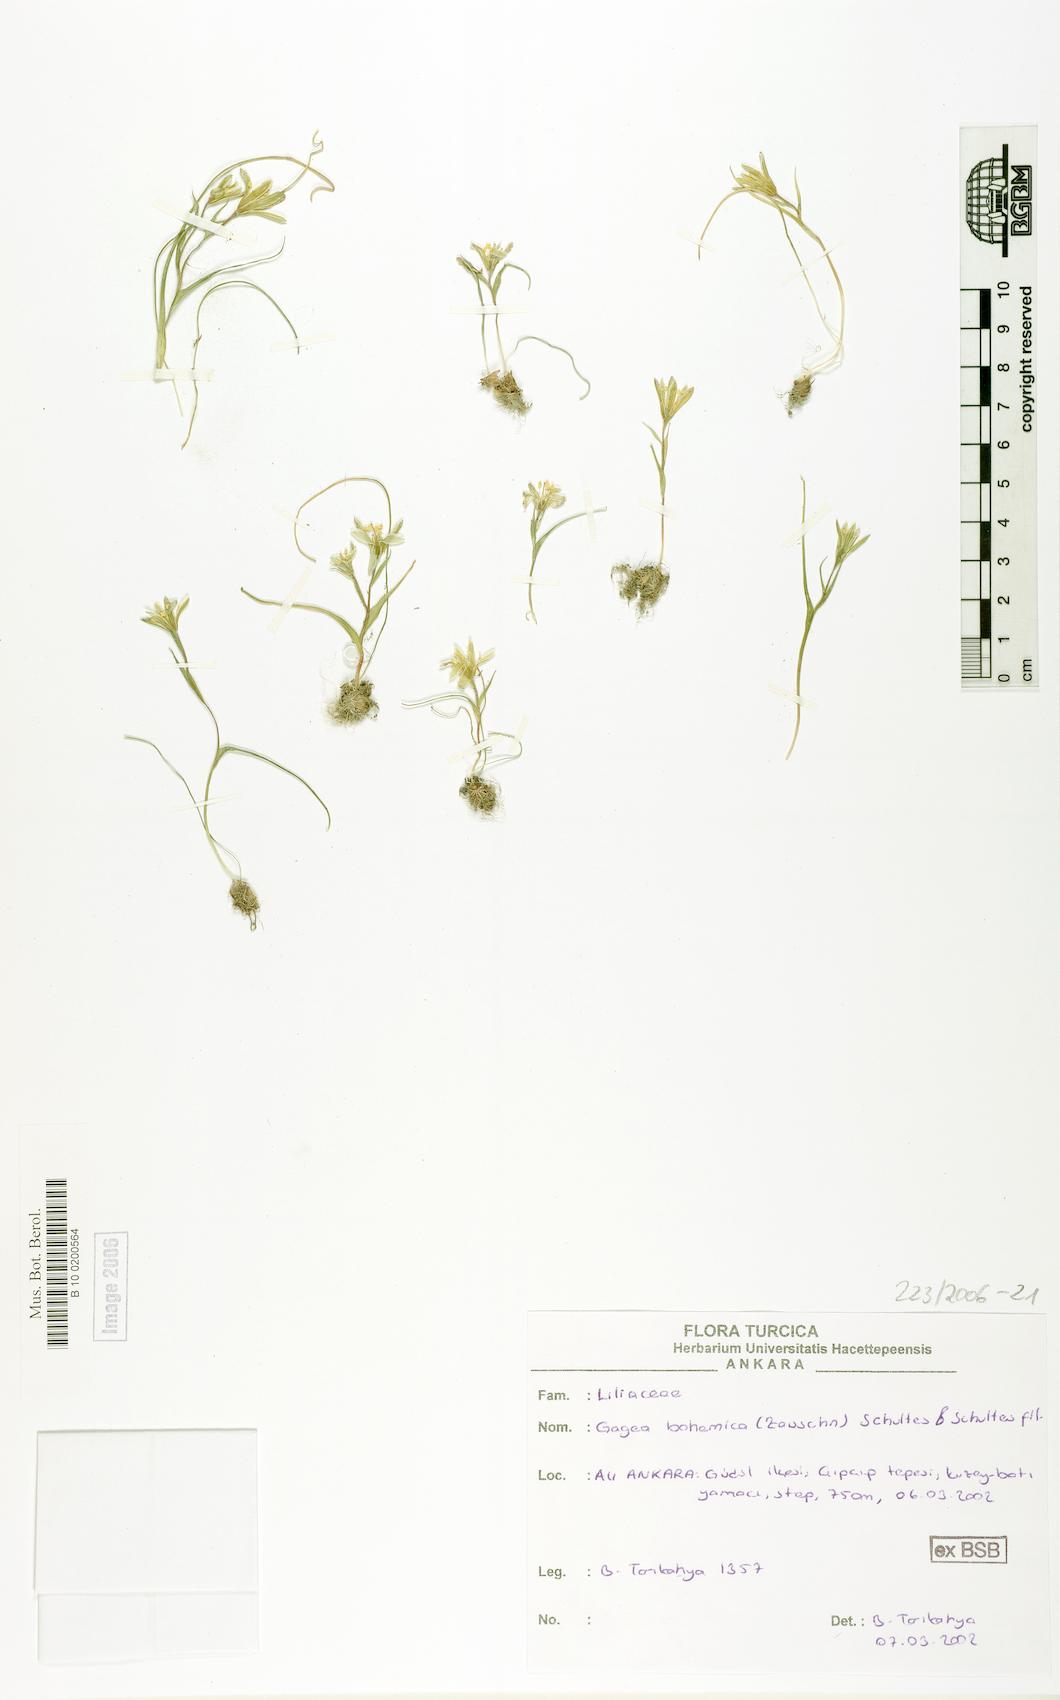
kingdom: Plantae
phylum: Tracheophyta
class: Liliopsida
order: Liliales
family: Liliaceae
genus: Gagea
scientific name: Gagea bohemica
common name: Early star-of-bethlehem
